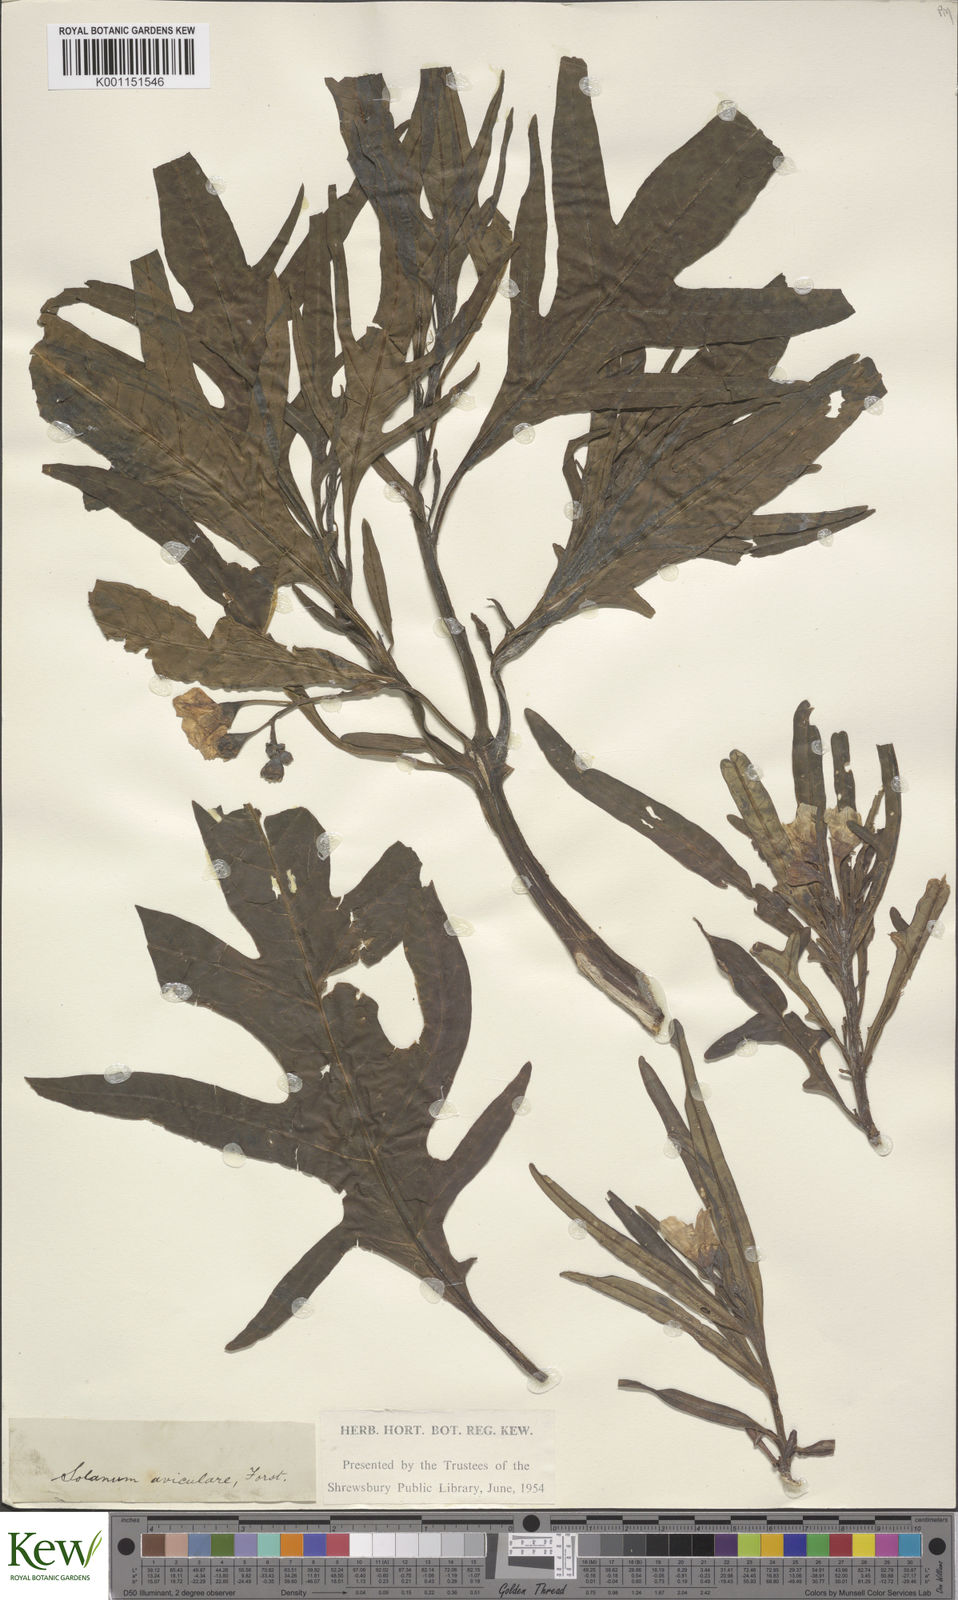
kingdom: Plantae
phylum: Tracheophyta
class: Magnoliopsida
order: Solanales
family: Solanaceae
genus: Solanum
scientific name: Solanum aviculare
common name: New zealand nightshade
